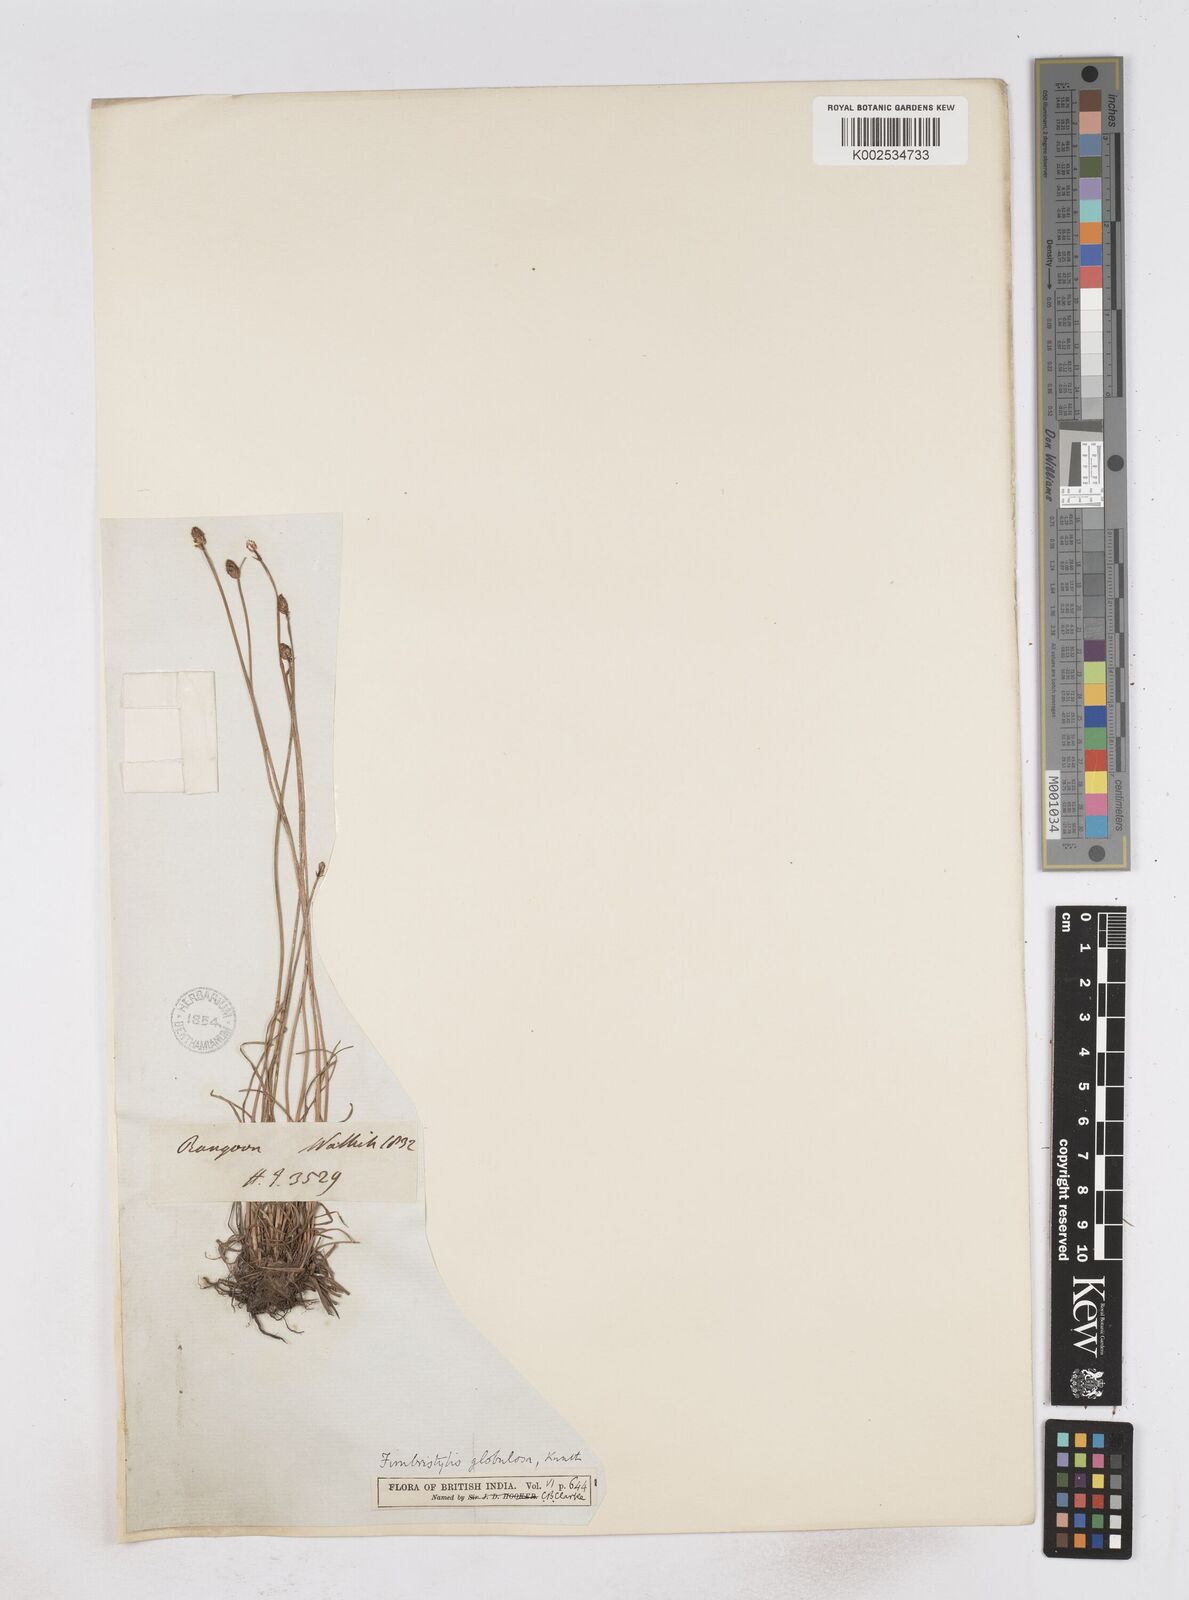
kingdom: Plantae
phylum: Tracheophyta
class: Liliopsida
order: Poales
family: Cyperaceae
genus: Fimbristylis
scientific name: Fimbristylis umbellaris
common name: Globular fimbristylis
